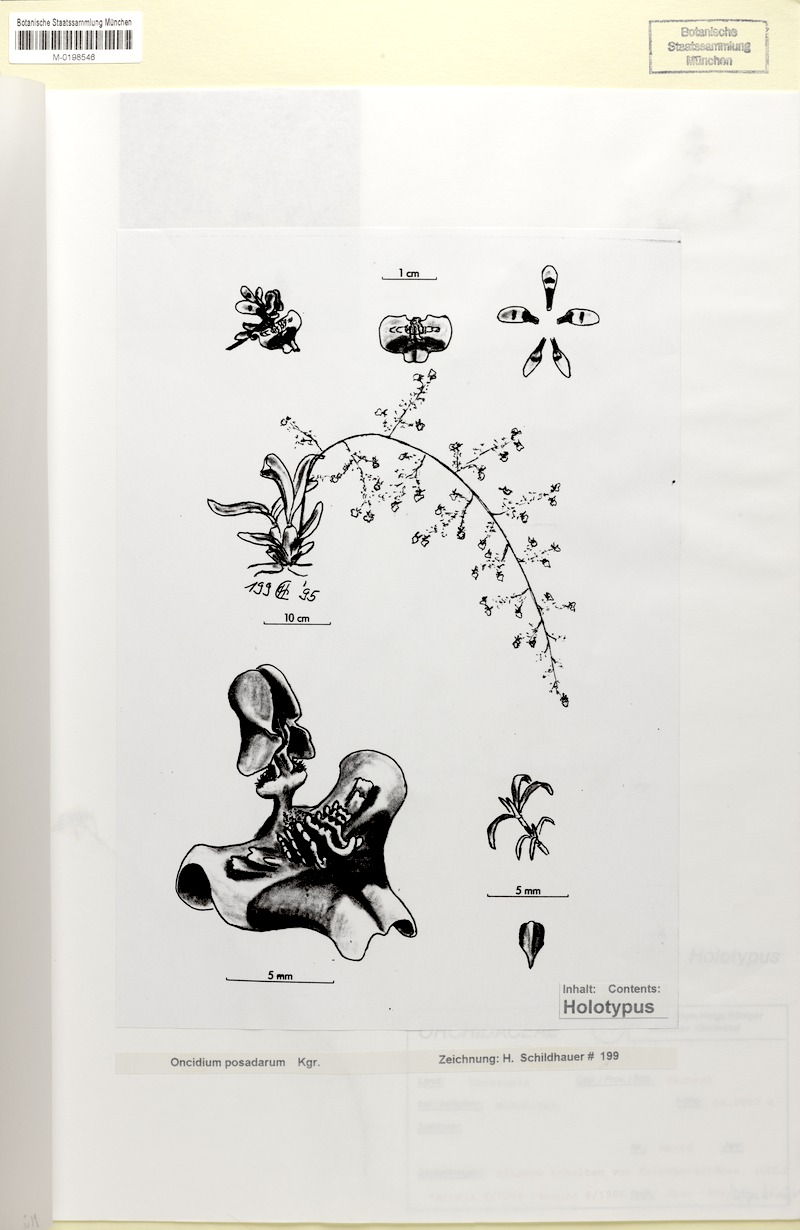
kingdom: Plantae
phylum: Tracheophyta
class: Liliopsida
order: Asparagales
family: Orchidaceae
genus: Oncidium
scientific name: Oncidium posadarum
